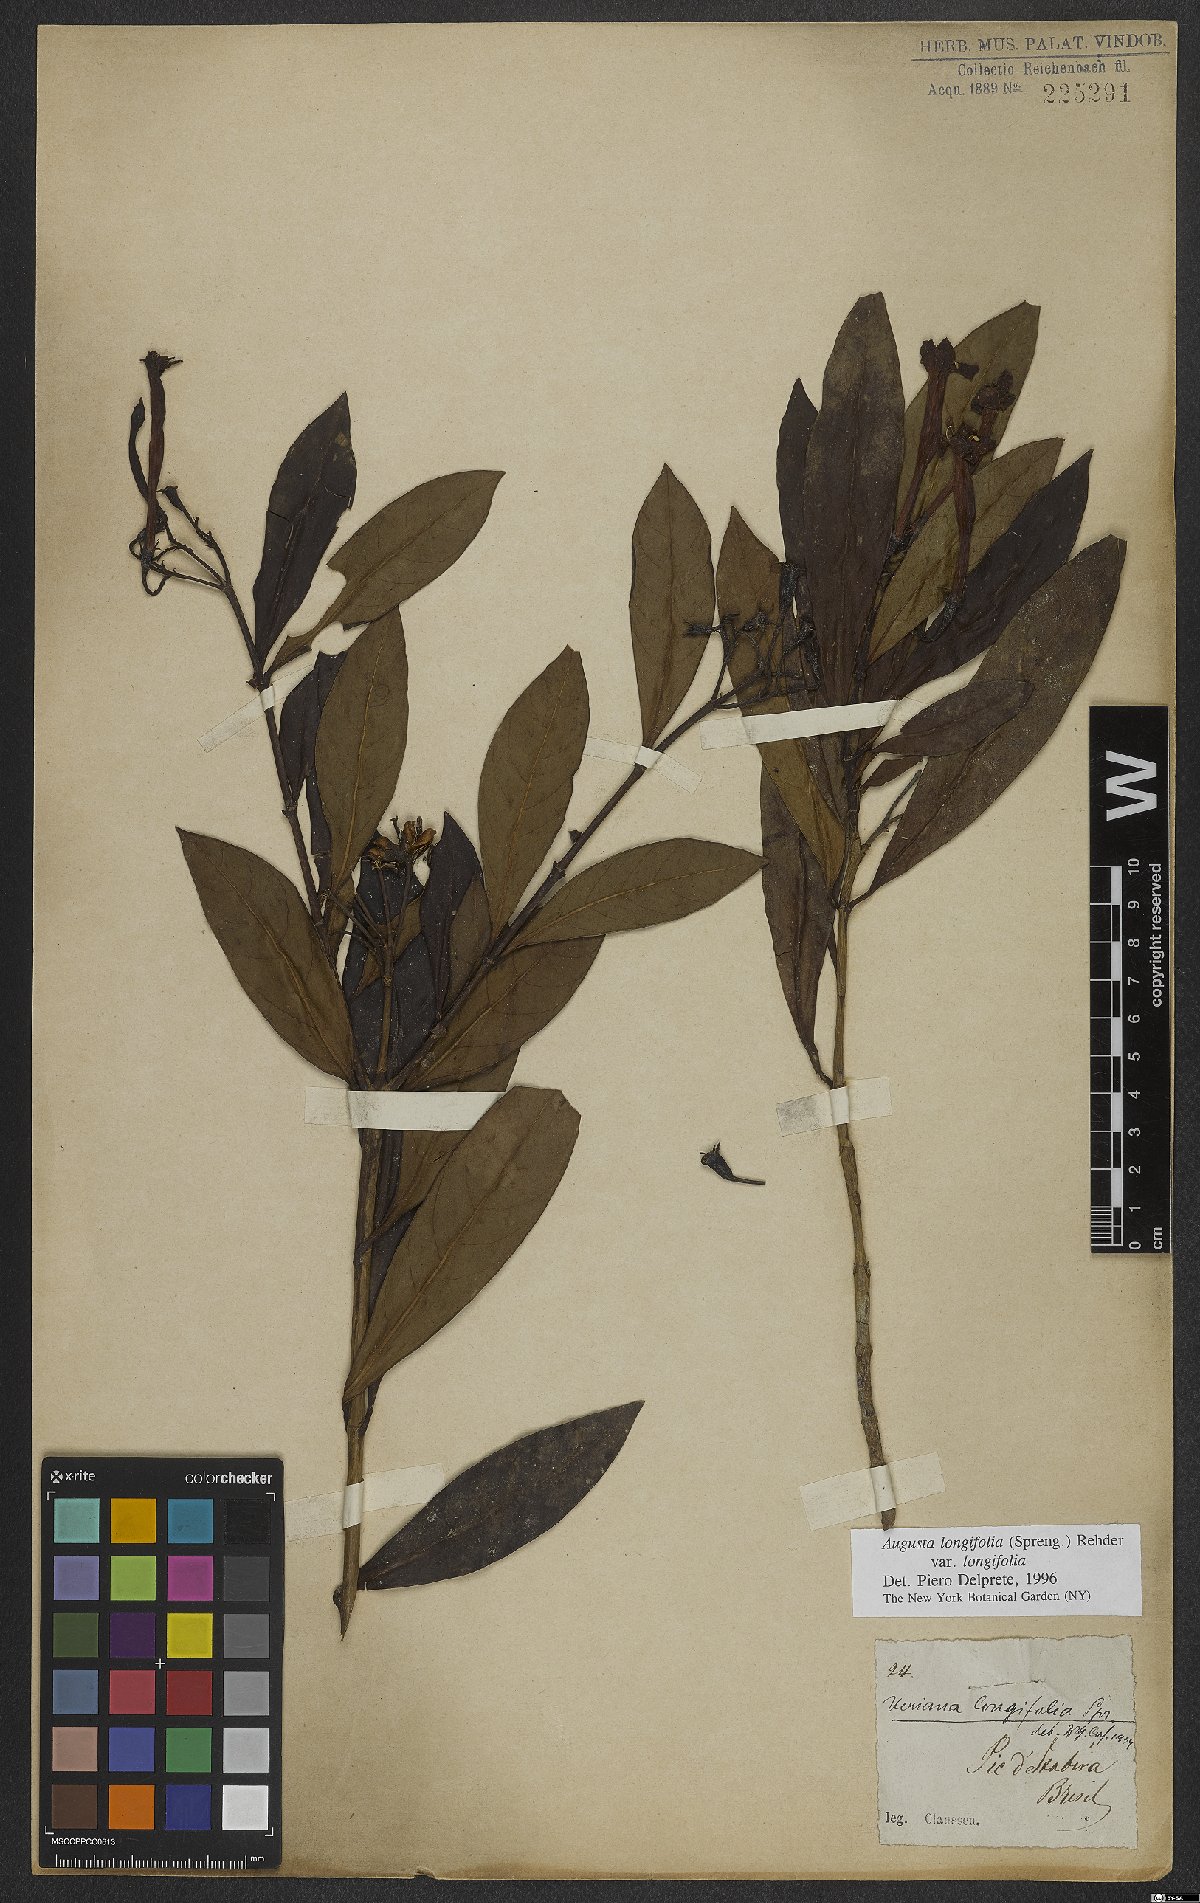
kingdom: Plantae
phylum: Tracheophyta
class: Magnoliopsida
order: Gentianales
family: Rubiaceae
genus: Augusta
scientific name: Augusta longifolia
